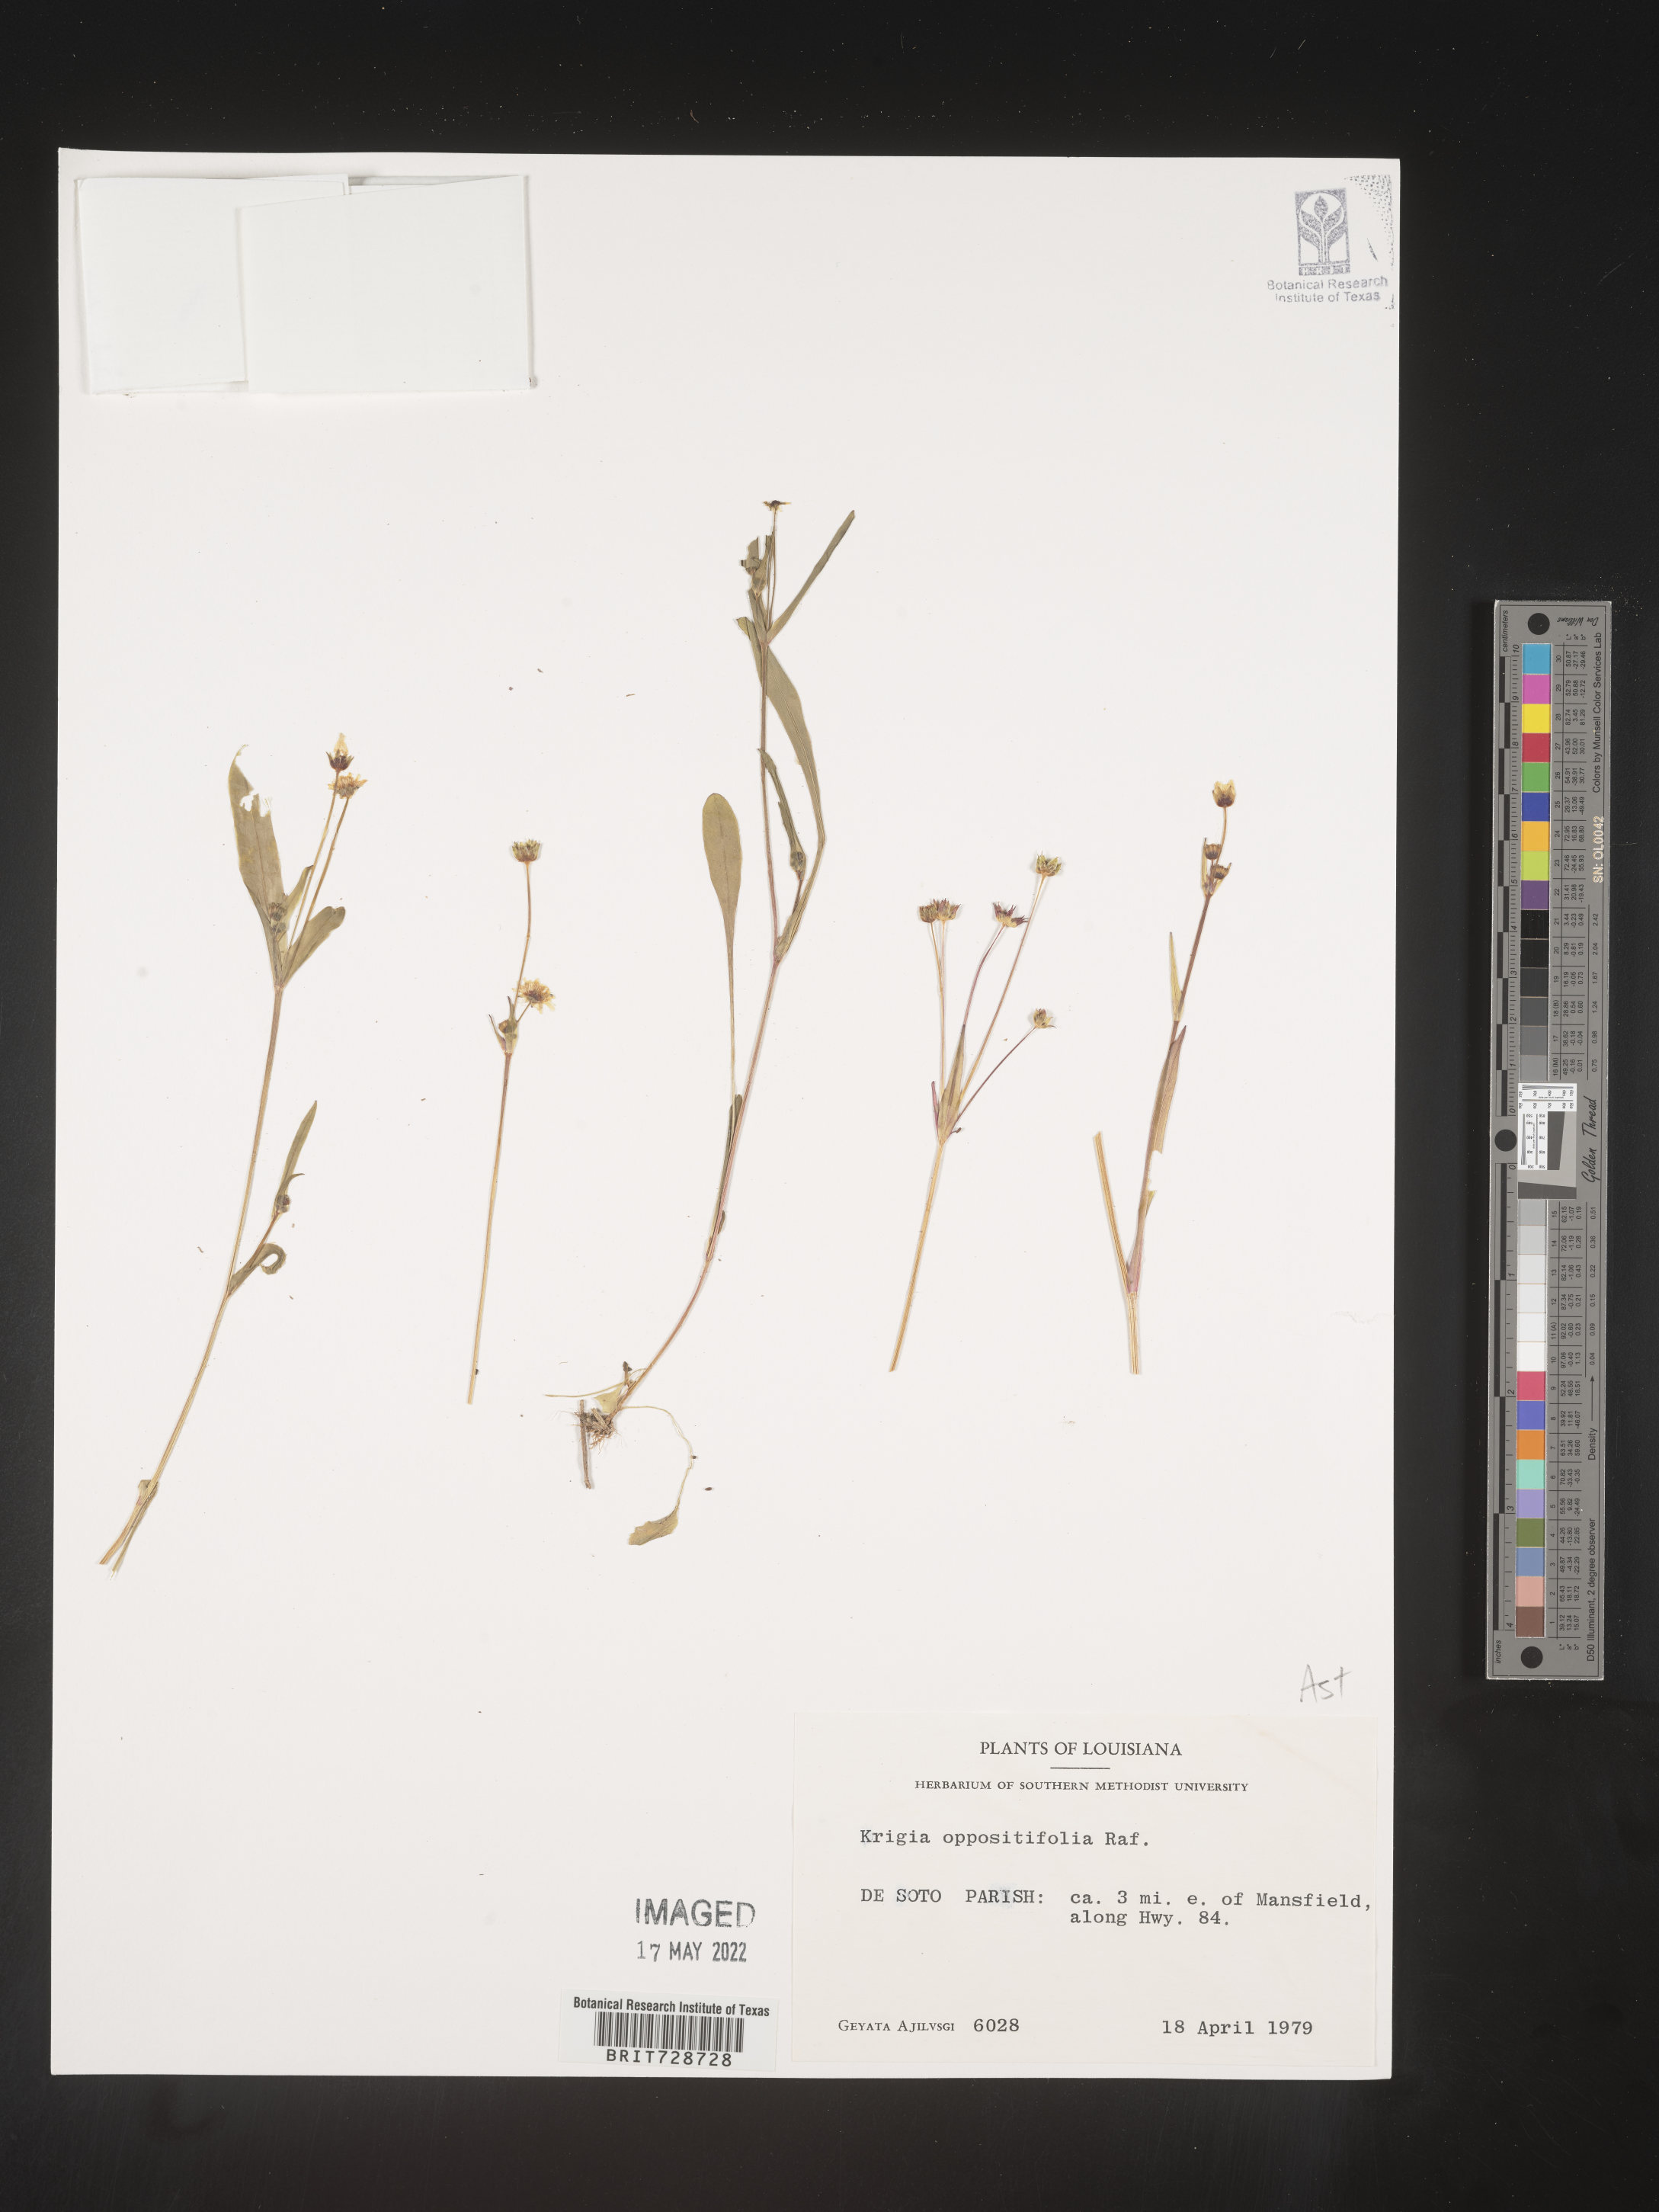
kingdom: Plantae
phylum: Tracheophyta
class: Magnoliopsida
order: Asterales
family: Asteraceae
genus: Krigia
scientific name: Krigia cespitosa
